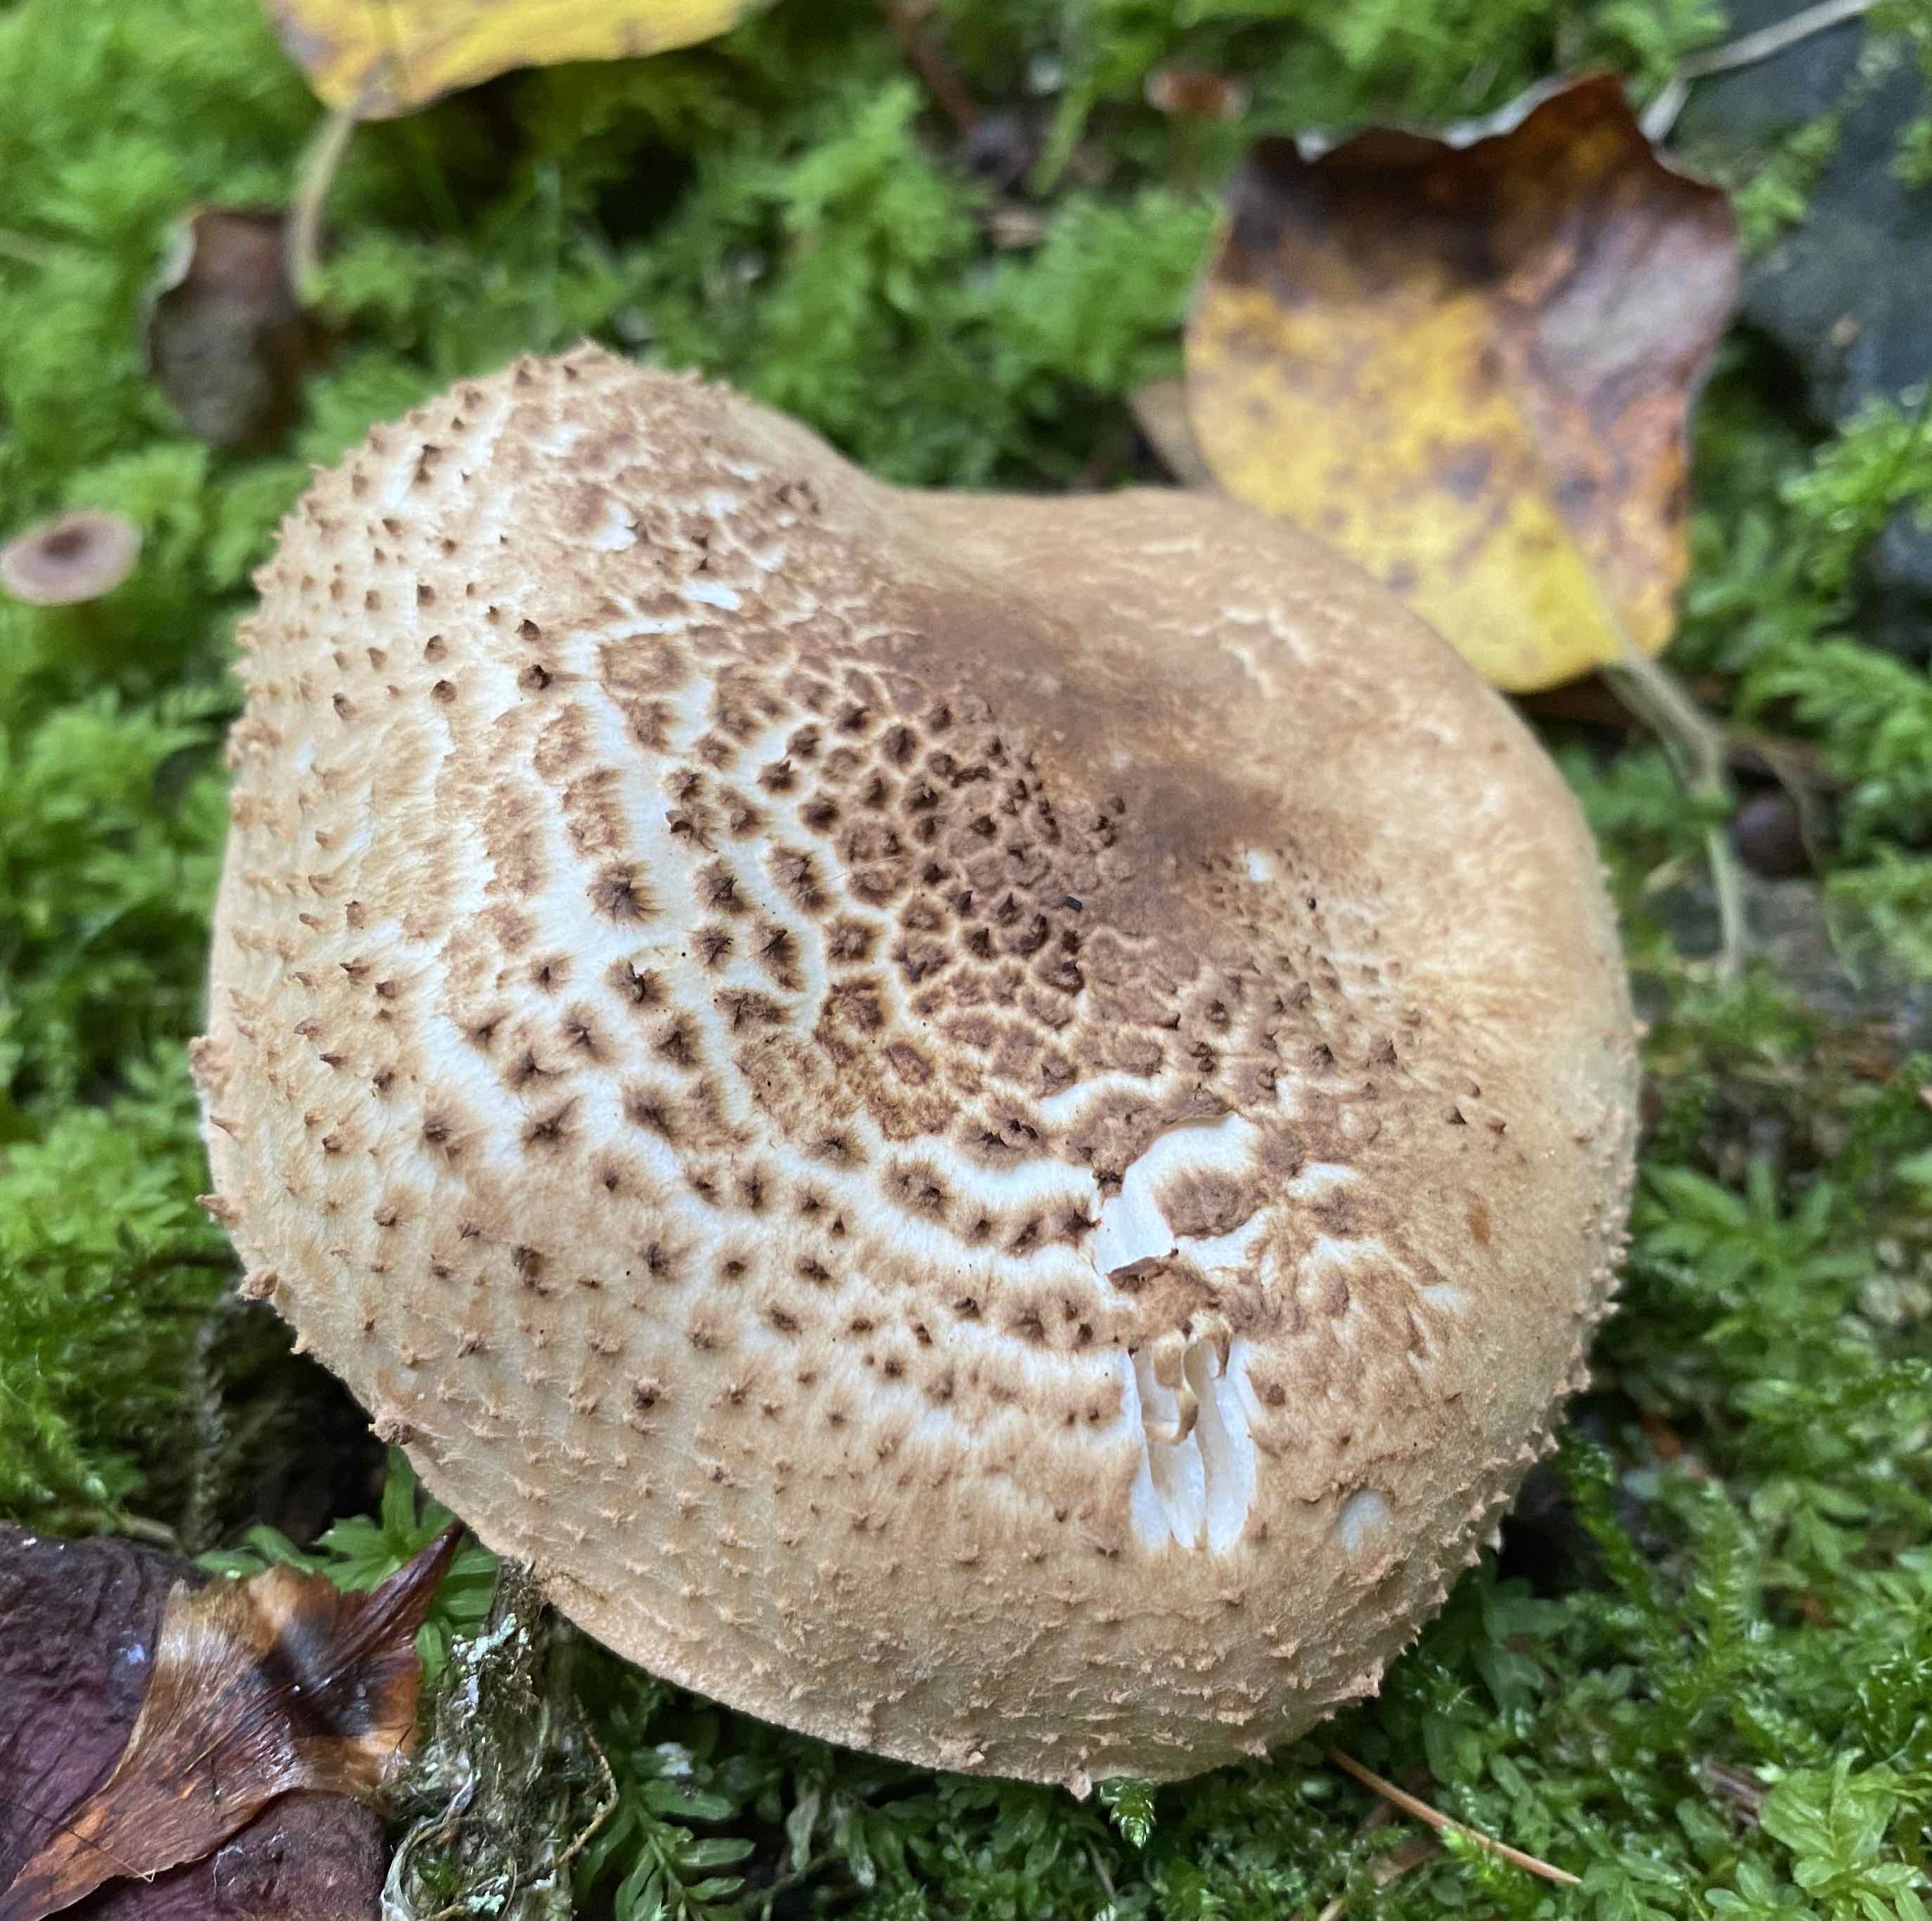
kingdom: Fungi
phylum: Basidiomycota
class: Agaricomycetes
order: Agaricales
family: Agaricaceae
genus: Echinoderma
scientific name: Echinoderma asperum
